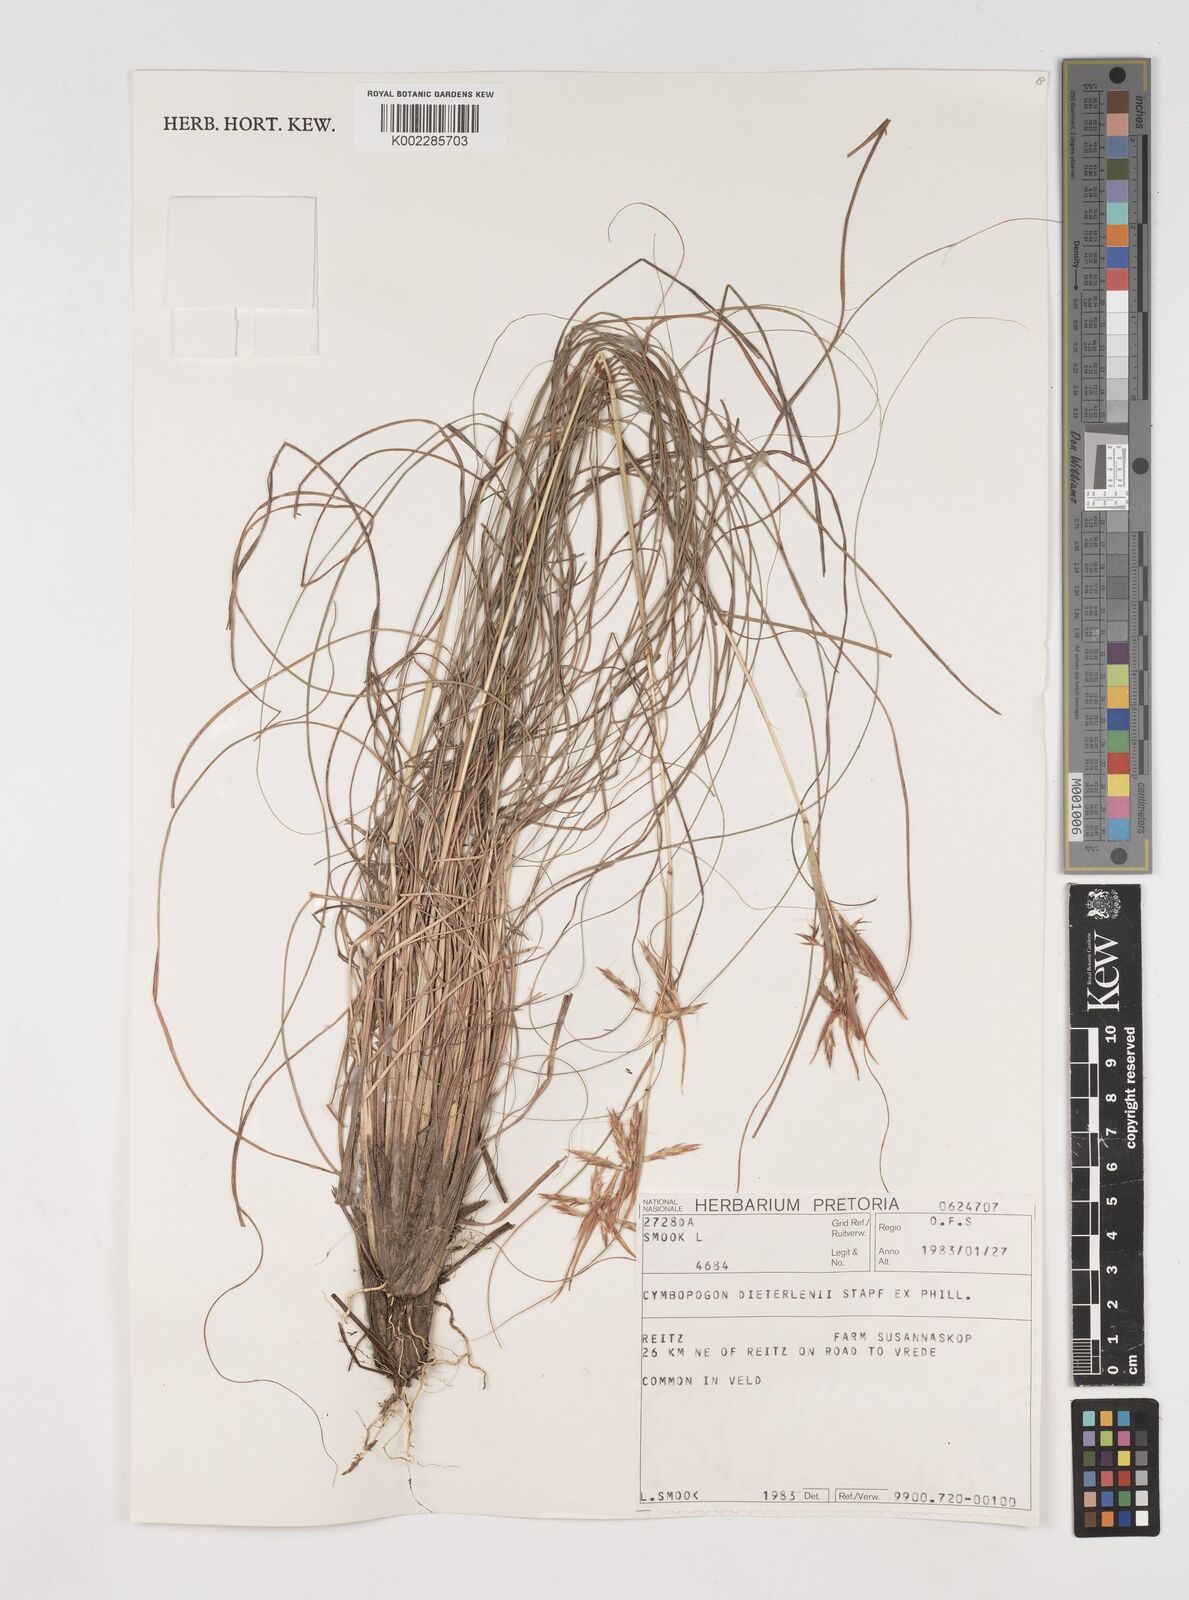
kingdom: Plantae
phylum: Tracheophyta
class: Liliopsida
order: Poales
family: Poaceae
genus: Cymbopogon
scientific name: Cymbopogon dieterlenii
